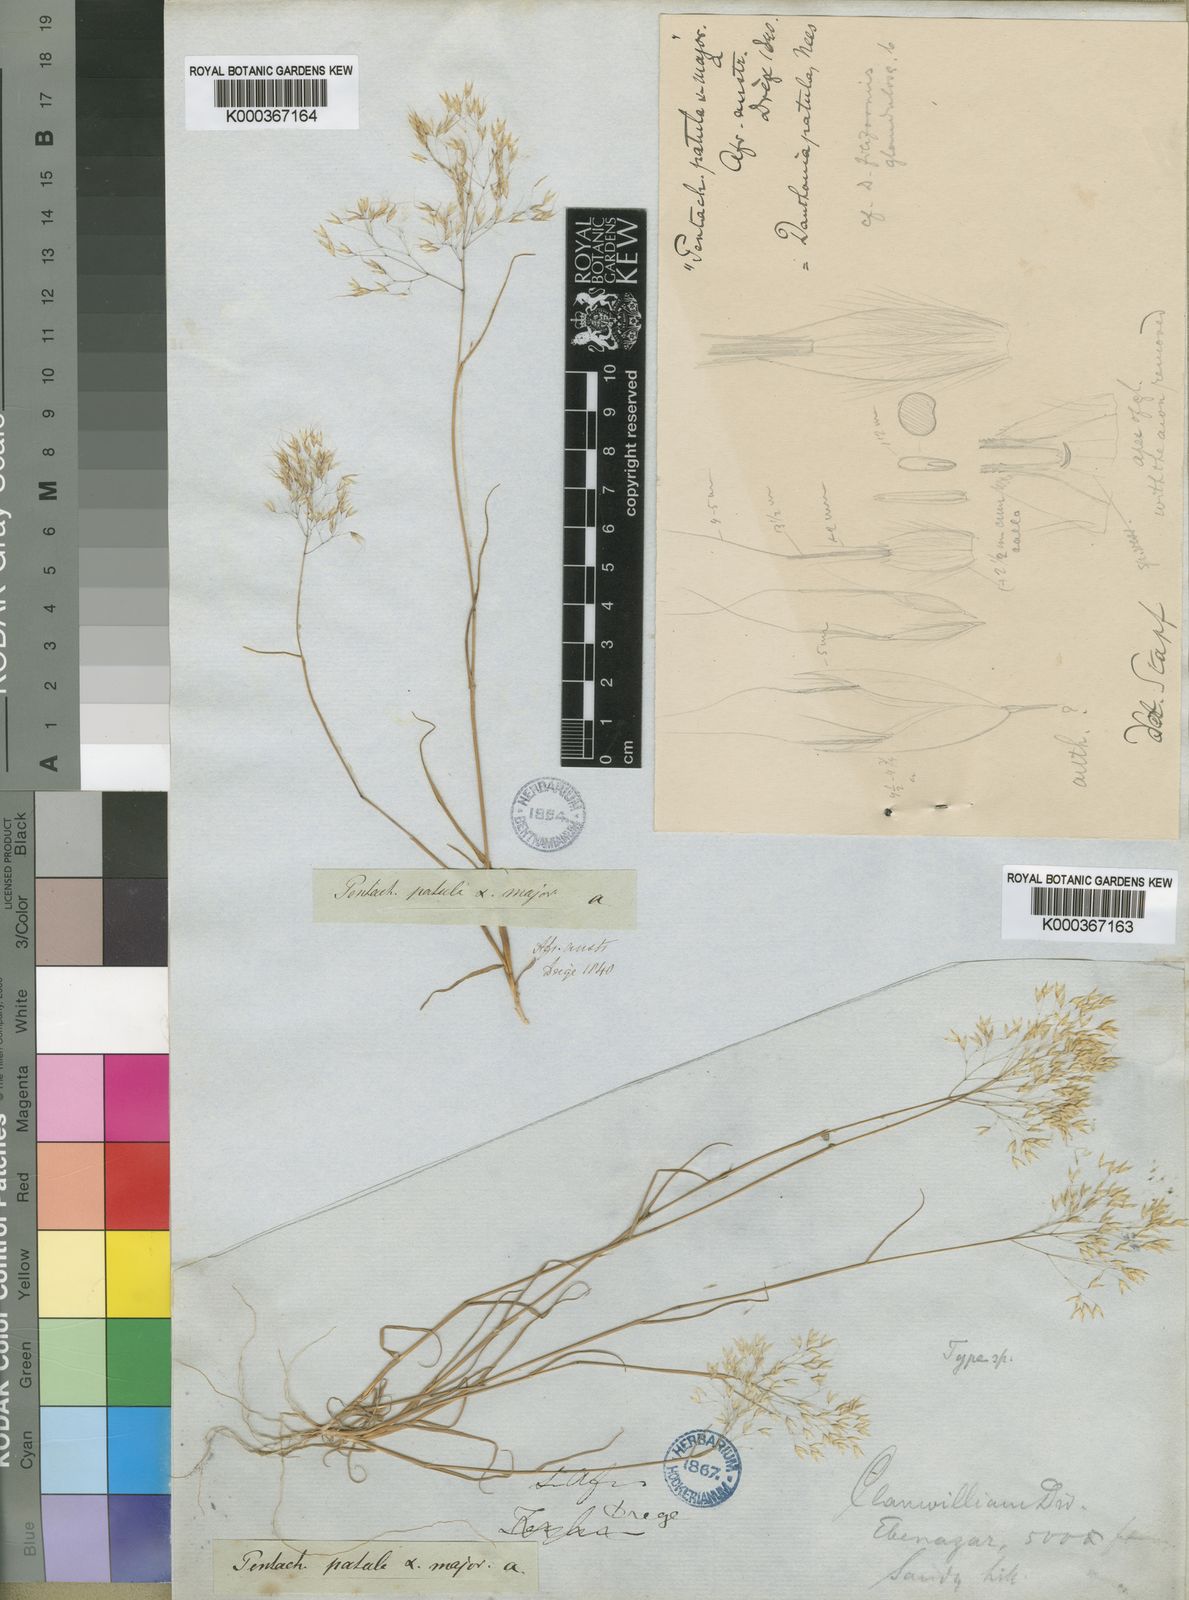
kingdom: Plantae
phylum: Tracheophyta
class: Liliopsida
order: Poales
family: Poaceae
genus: Pentameris
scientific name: Pentameris patula
